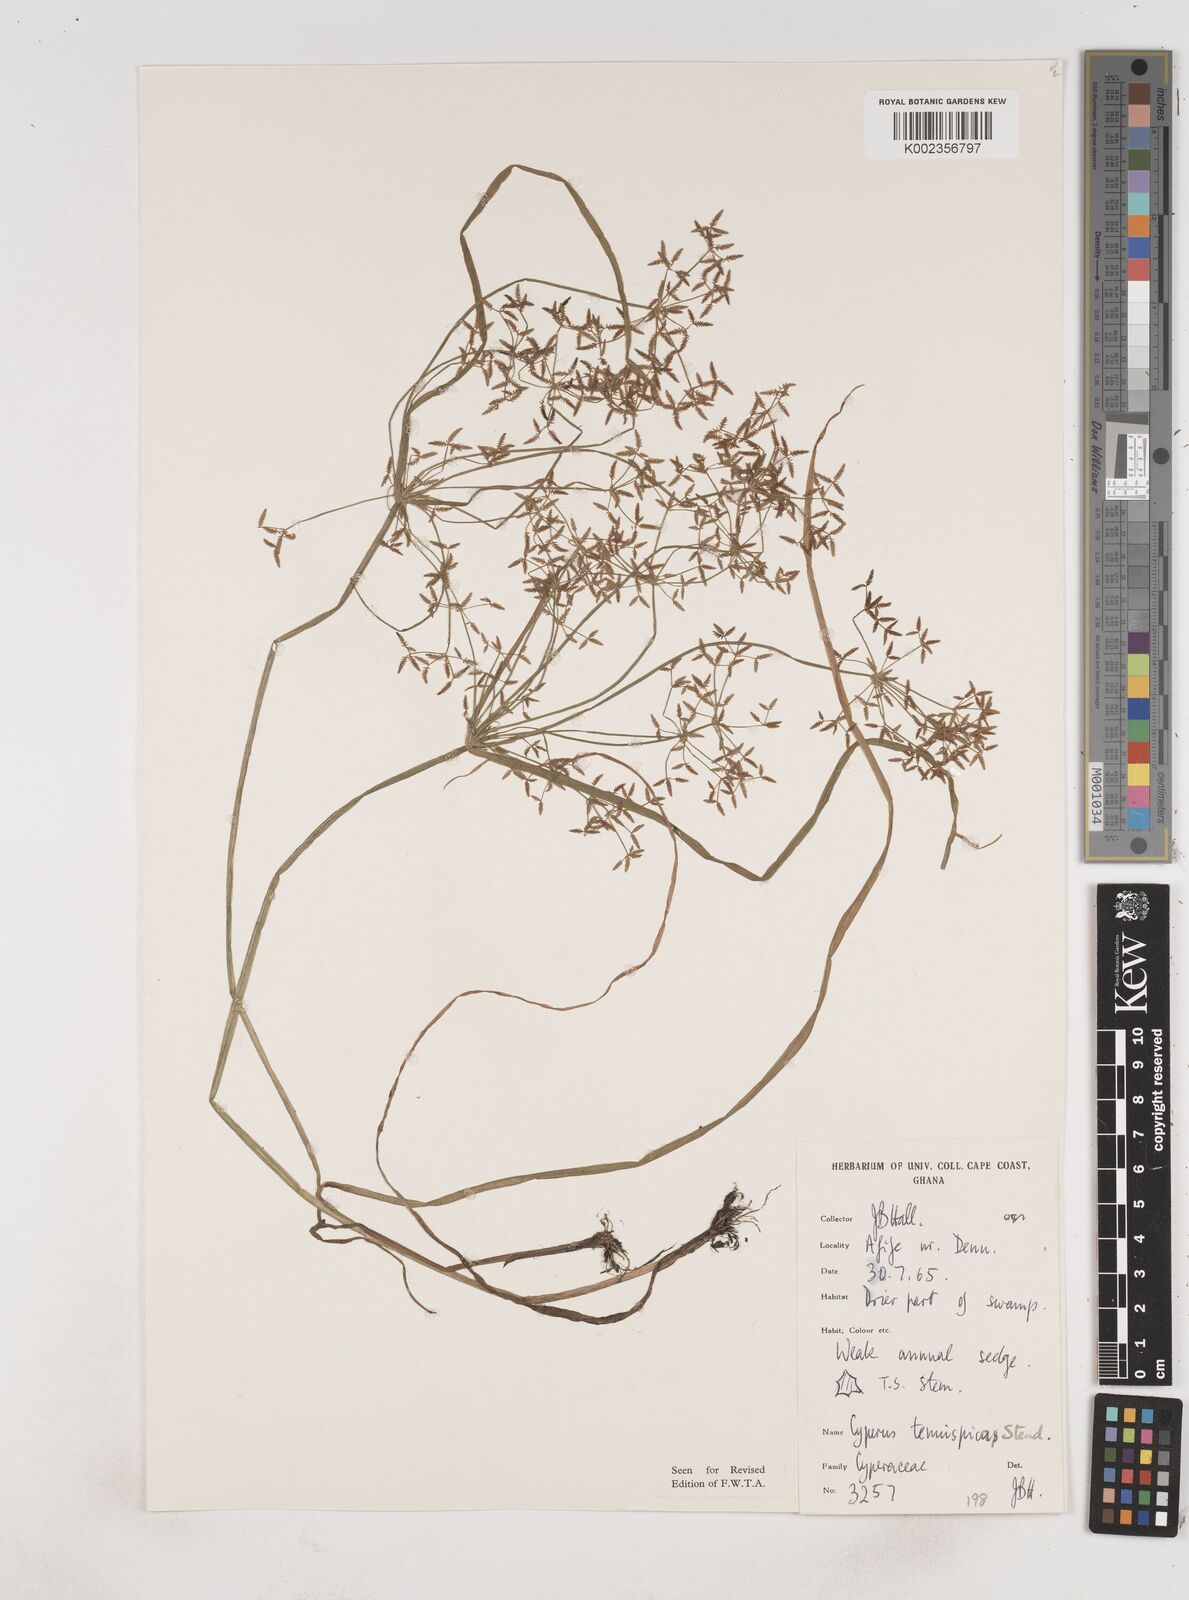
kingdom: Plantae
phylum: Tracheophyta
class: Liliopsida
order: Poales
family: Cyperaceae
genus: Cyperus
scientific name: Cyperus tenuispica
